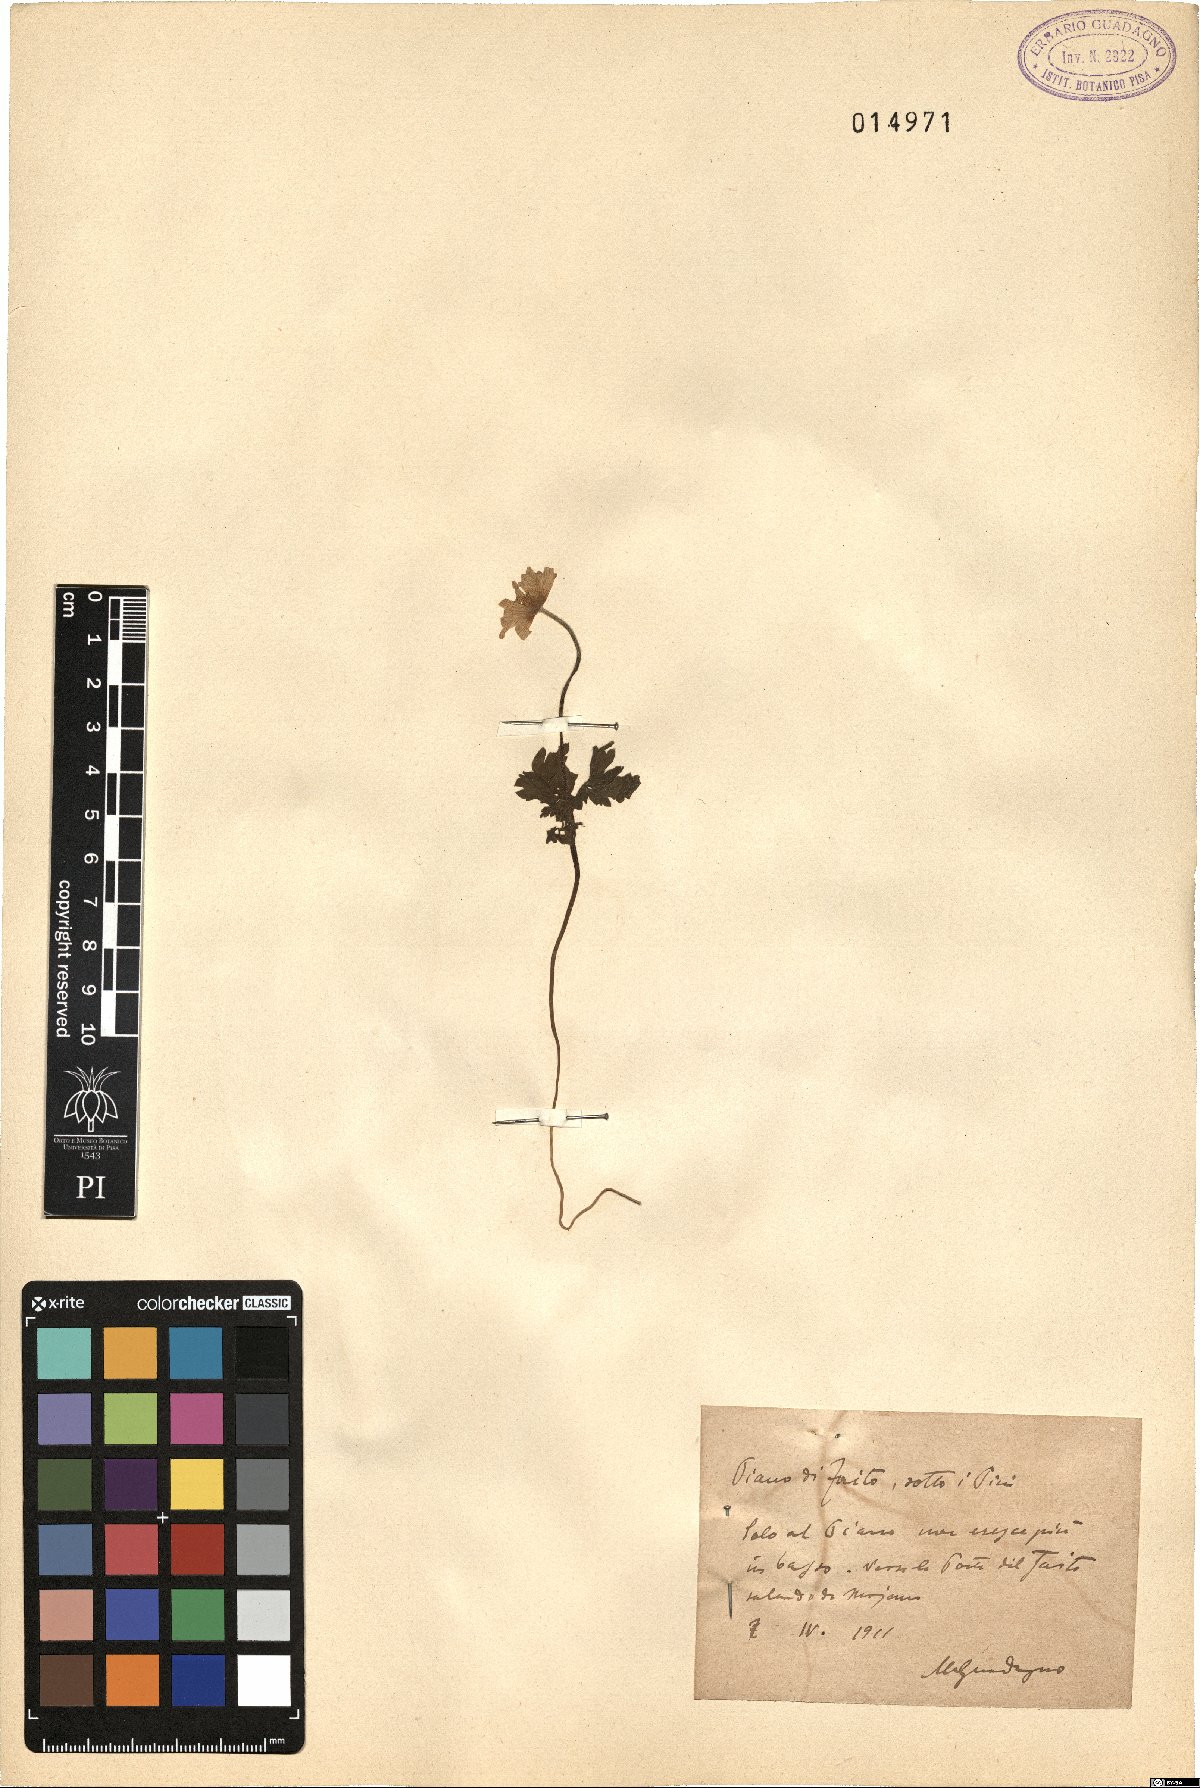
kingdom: Plantae
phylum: Tracheophyta
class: Magnoliopsida
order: Ranunculales
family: Ranunculaceae
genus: Anemone
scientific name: Anemone apennina
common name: Blue anemone
